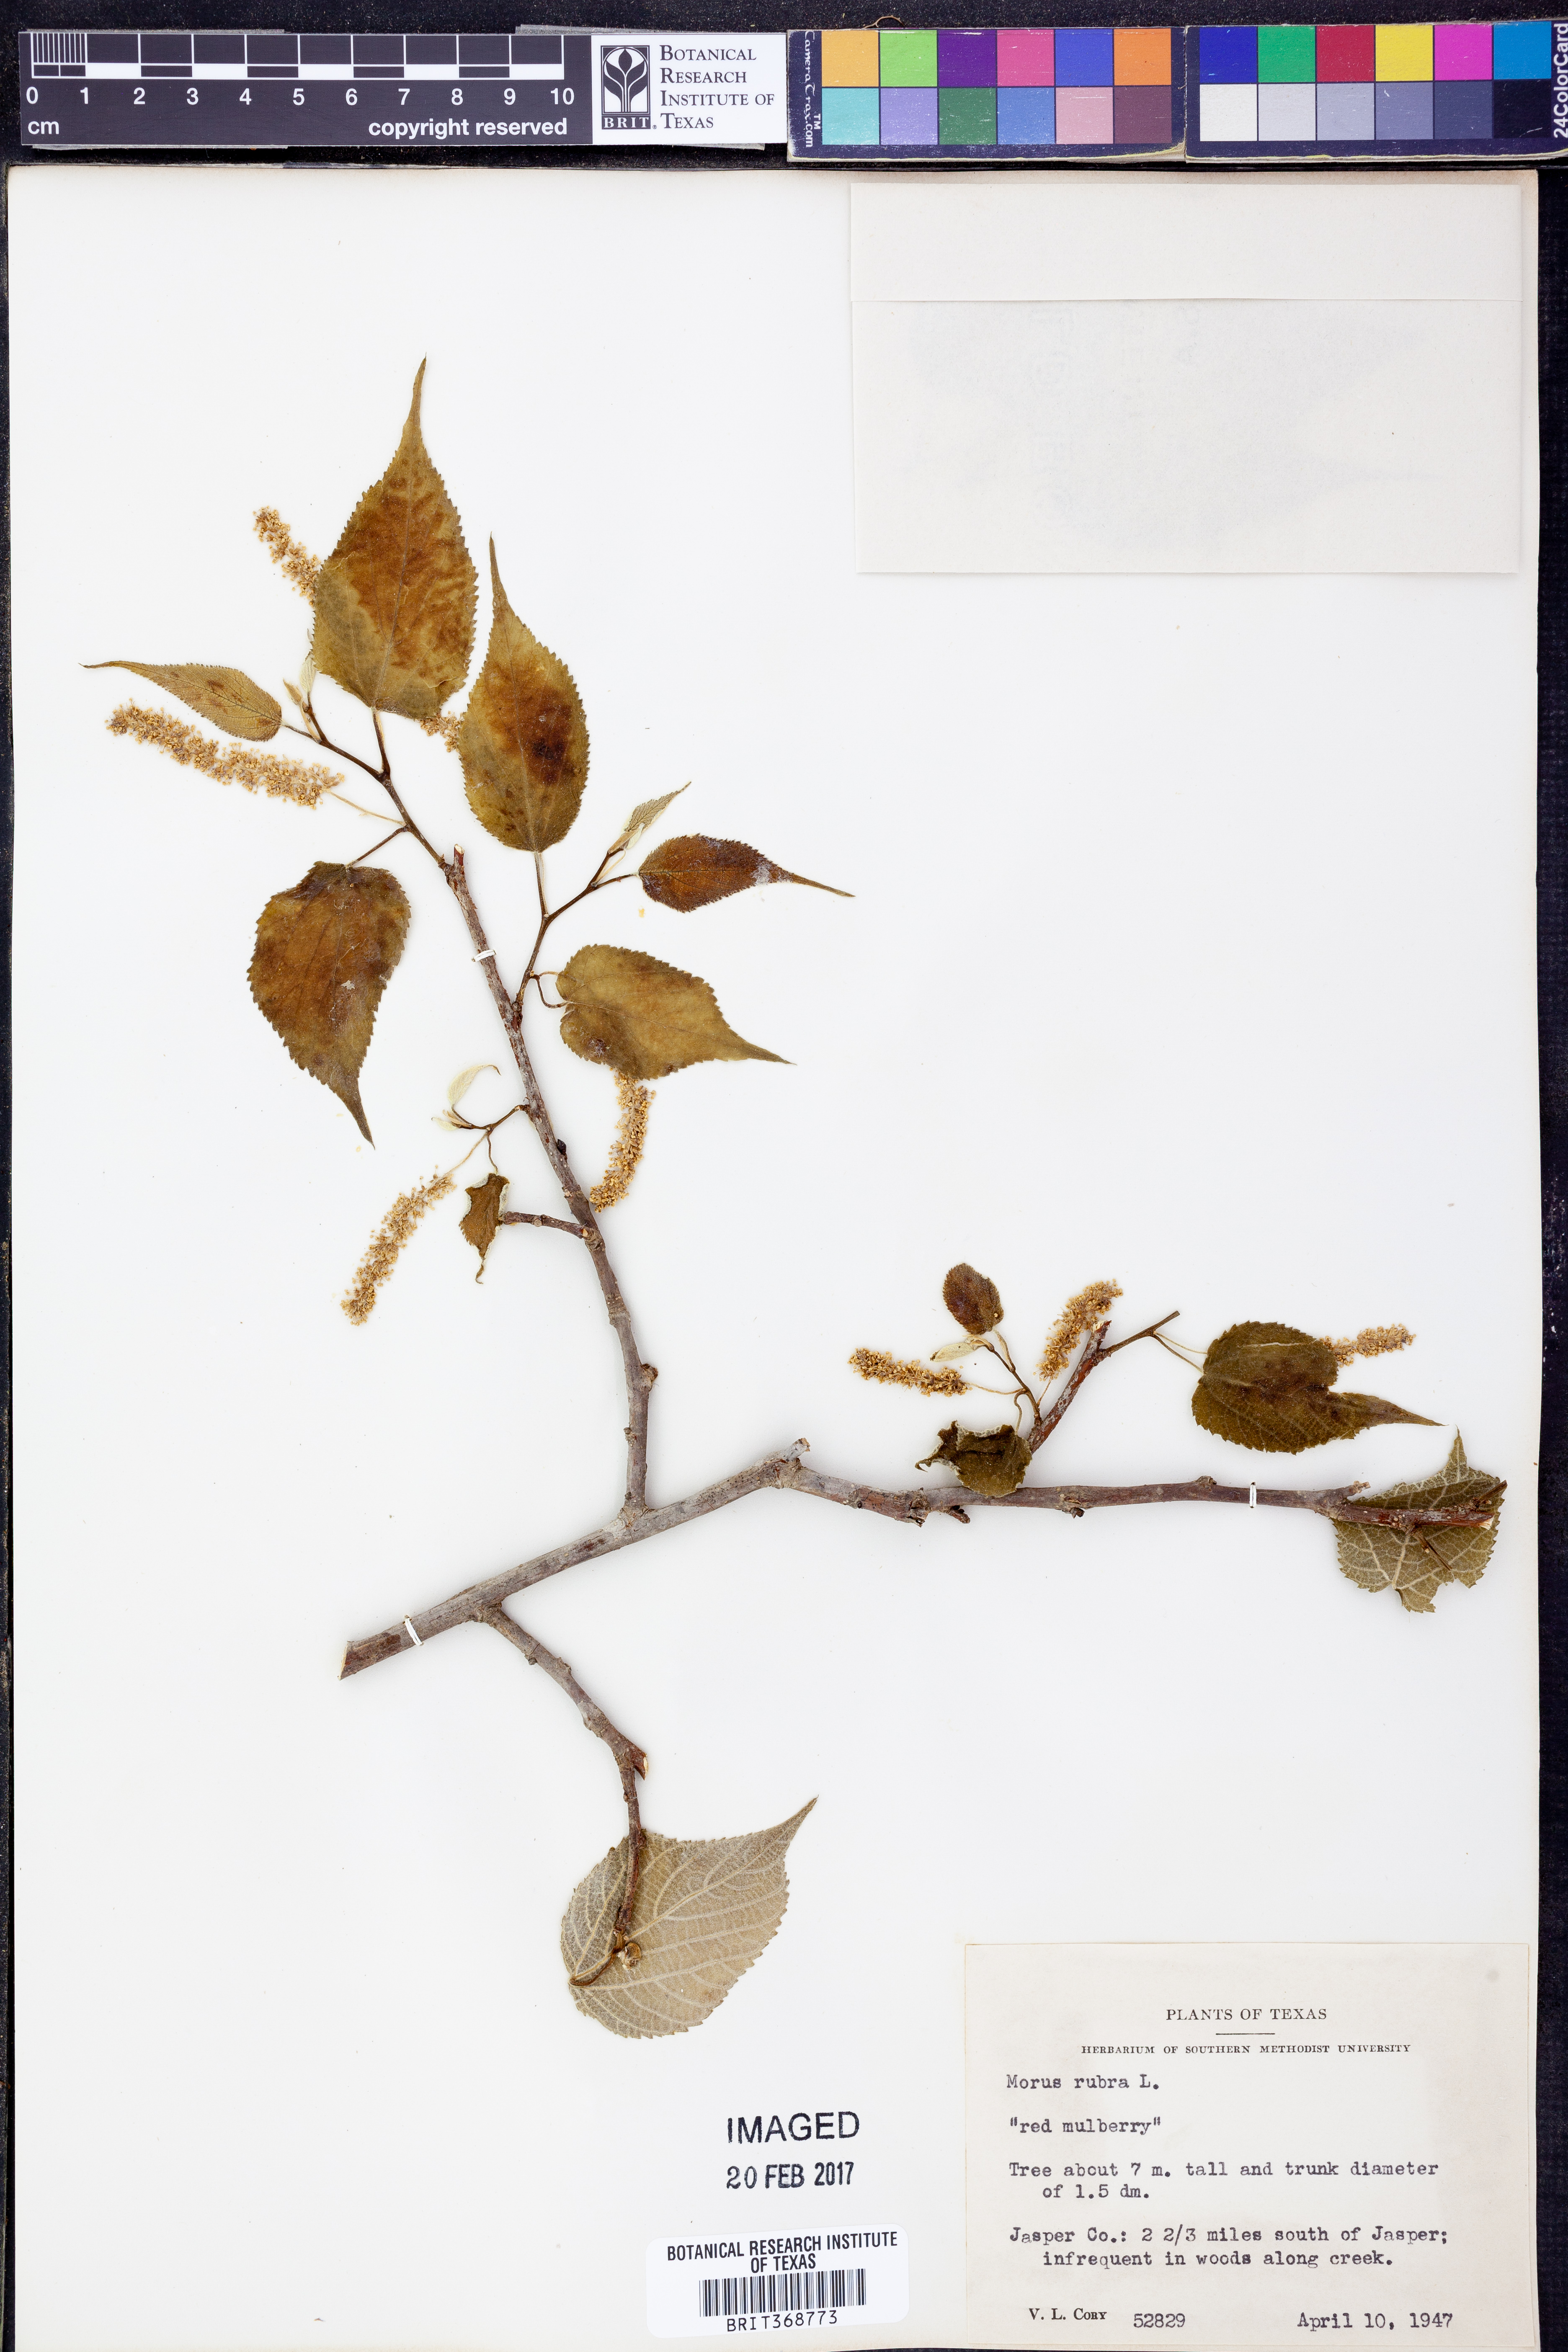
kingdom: Plantae
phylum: Tracheophyta
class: Magnoliopsida
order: Rosales
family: Moraceae
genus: Morus
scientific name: Morus rubra
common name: Red mulberry
